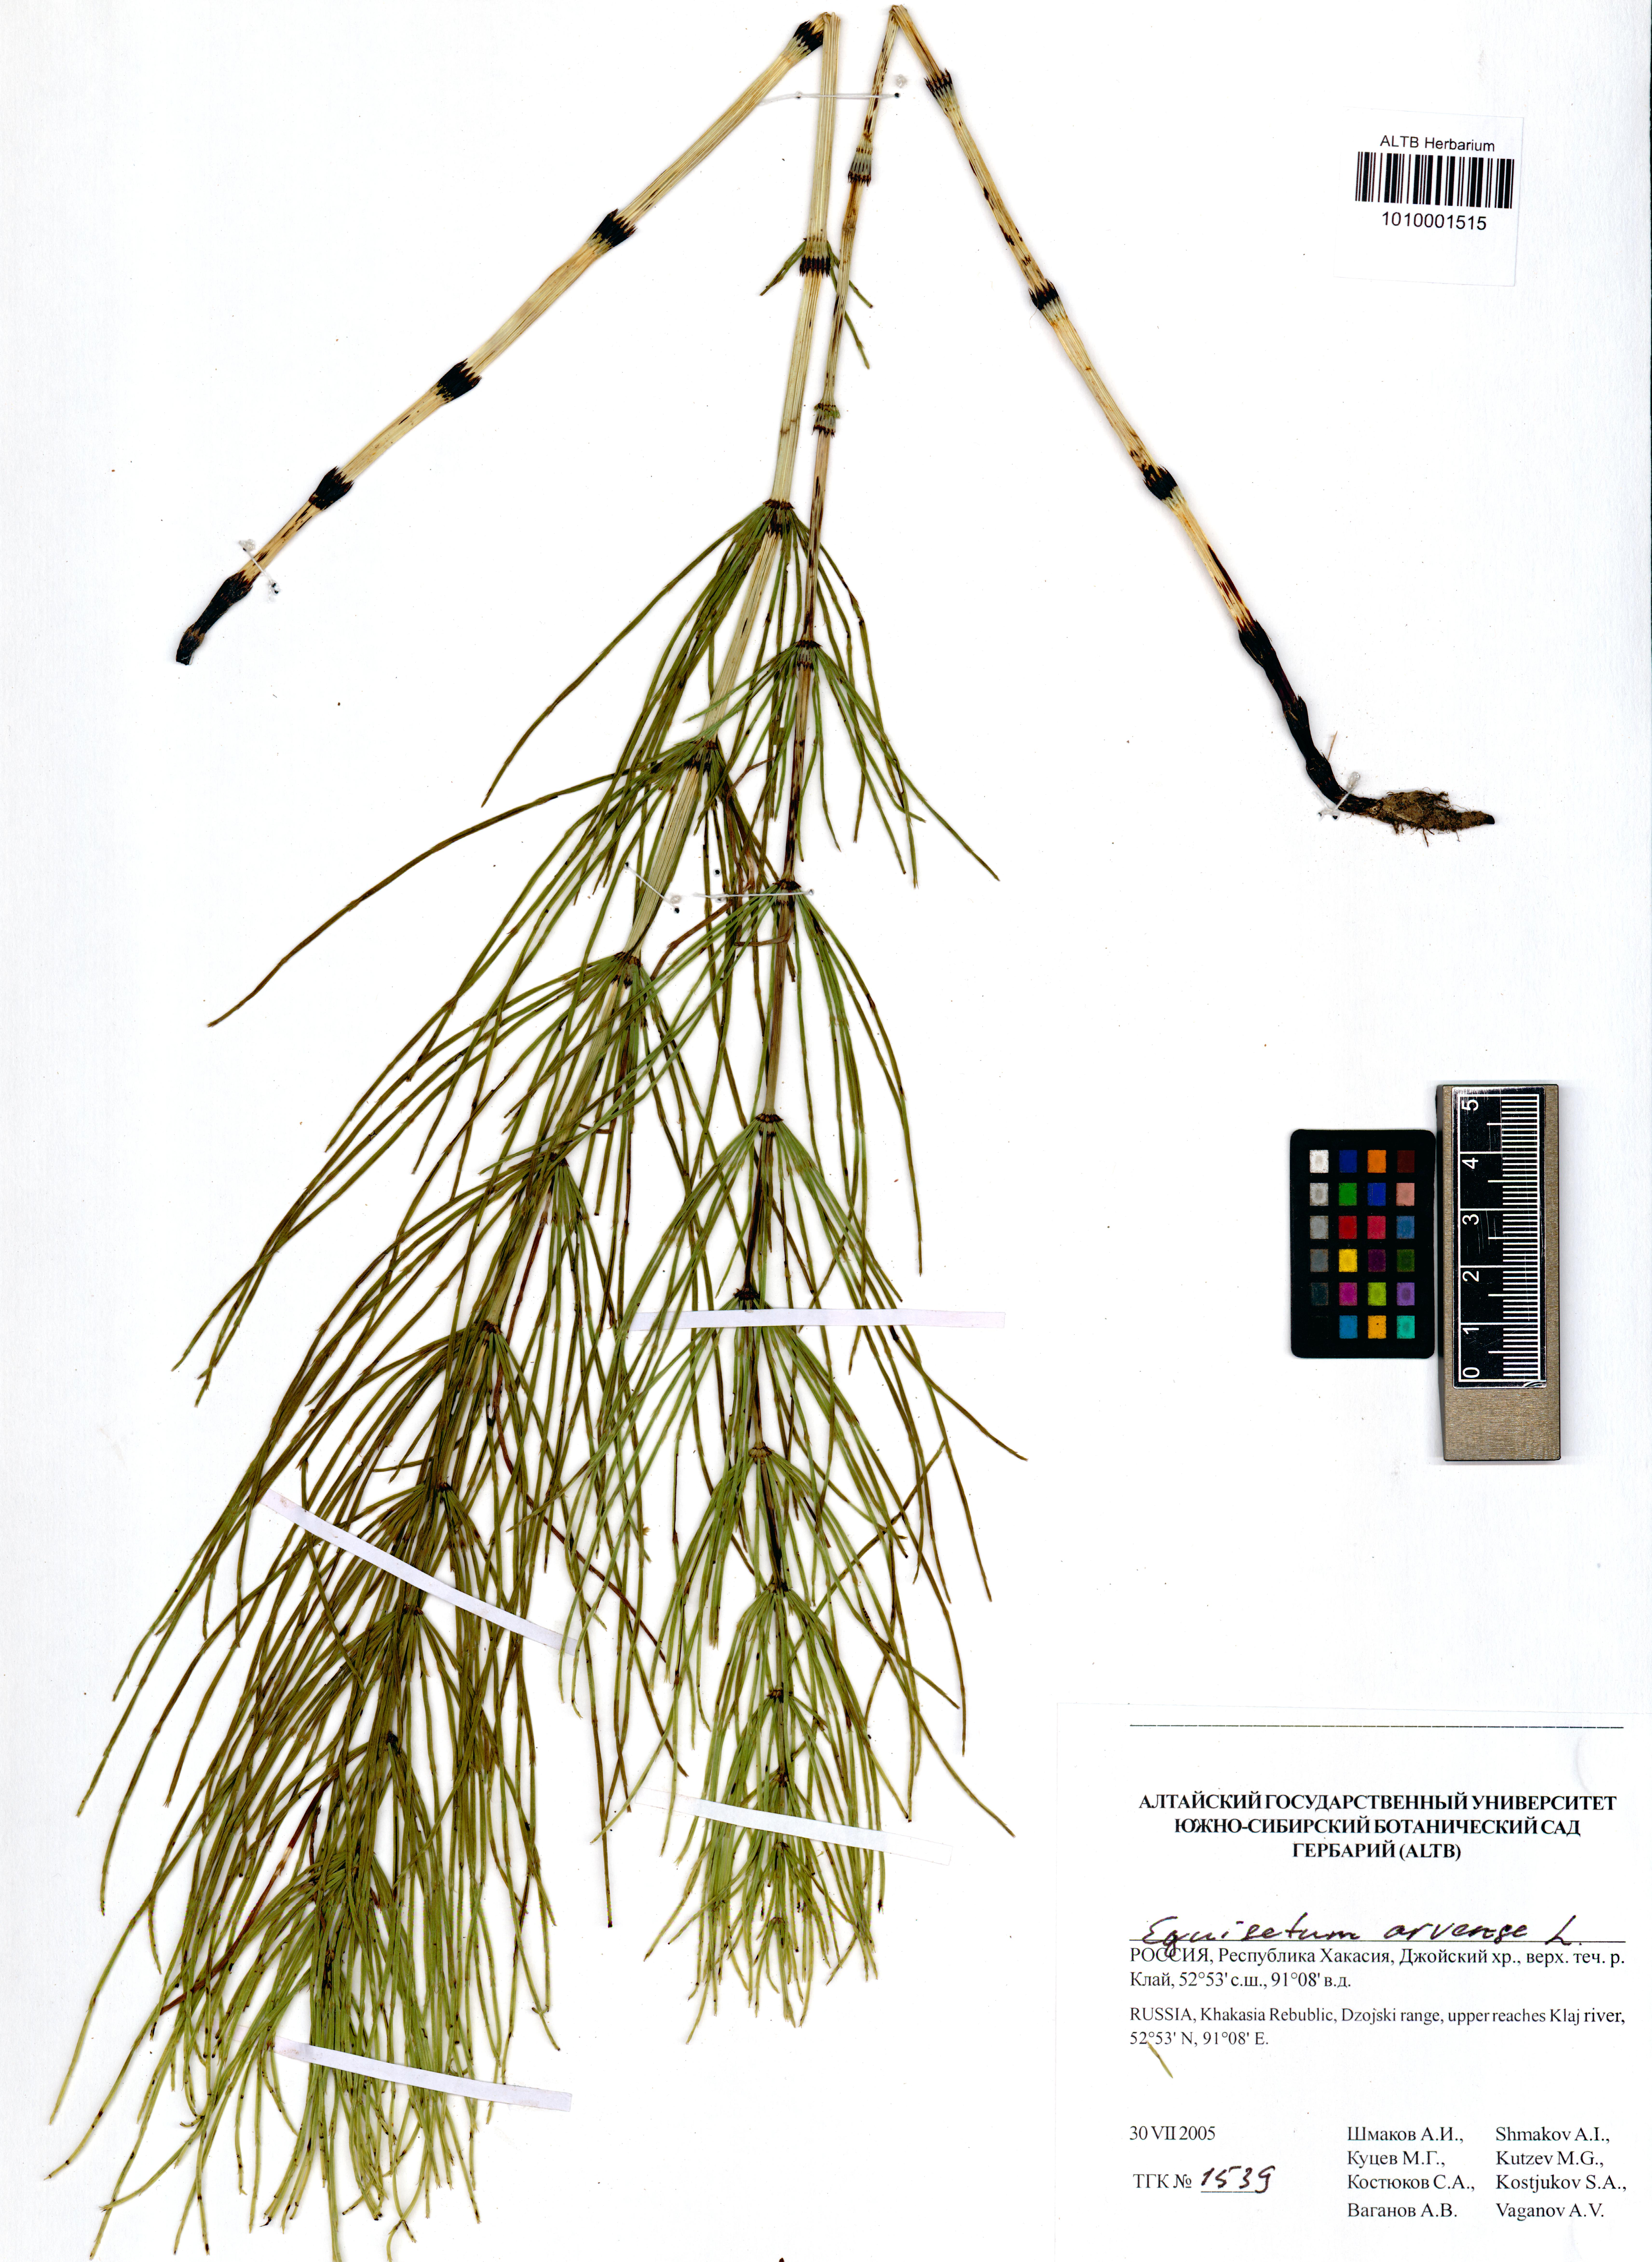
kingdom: Plantae
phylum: Tracheophyta
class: Polypodiopsida
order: Equisetales
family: Equisetaceae
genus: Equisetum
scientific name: Equisetum arvense
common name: Field horsetail
